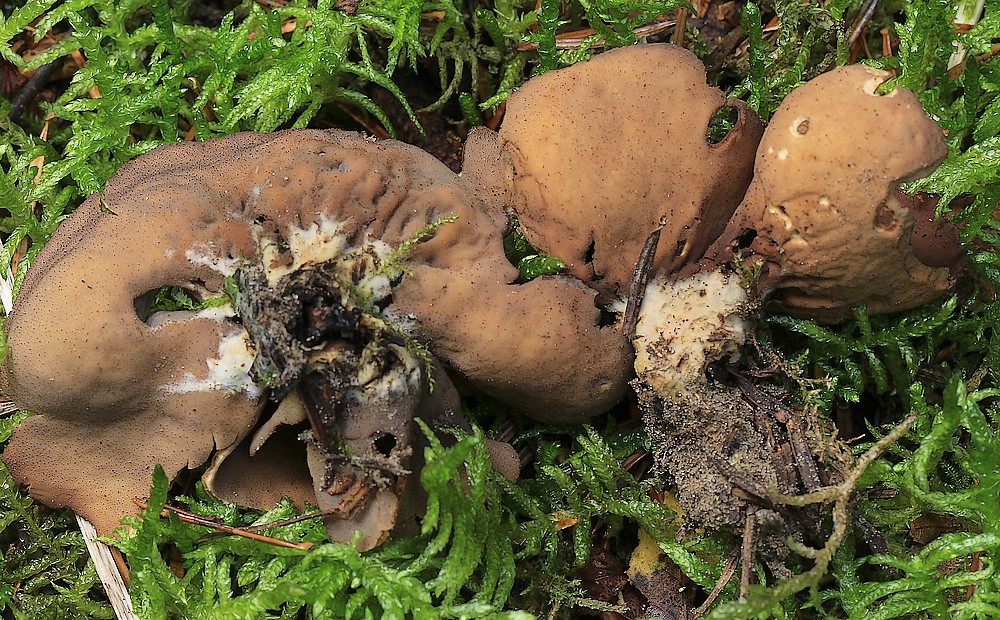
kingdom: Fungi
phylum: Ascomycota
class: Pezizomycetes
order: Pezizales
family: Otideaceae
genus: Otidea
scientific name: Otidea bufonia
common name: brun ørebæger
